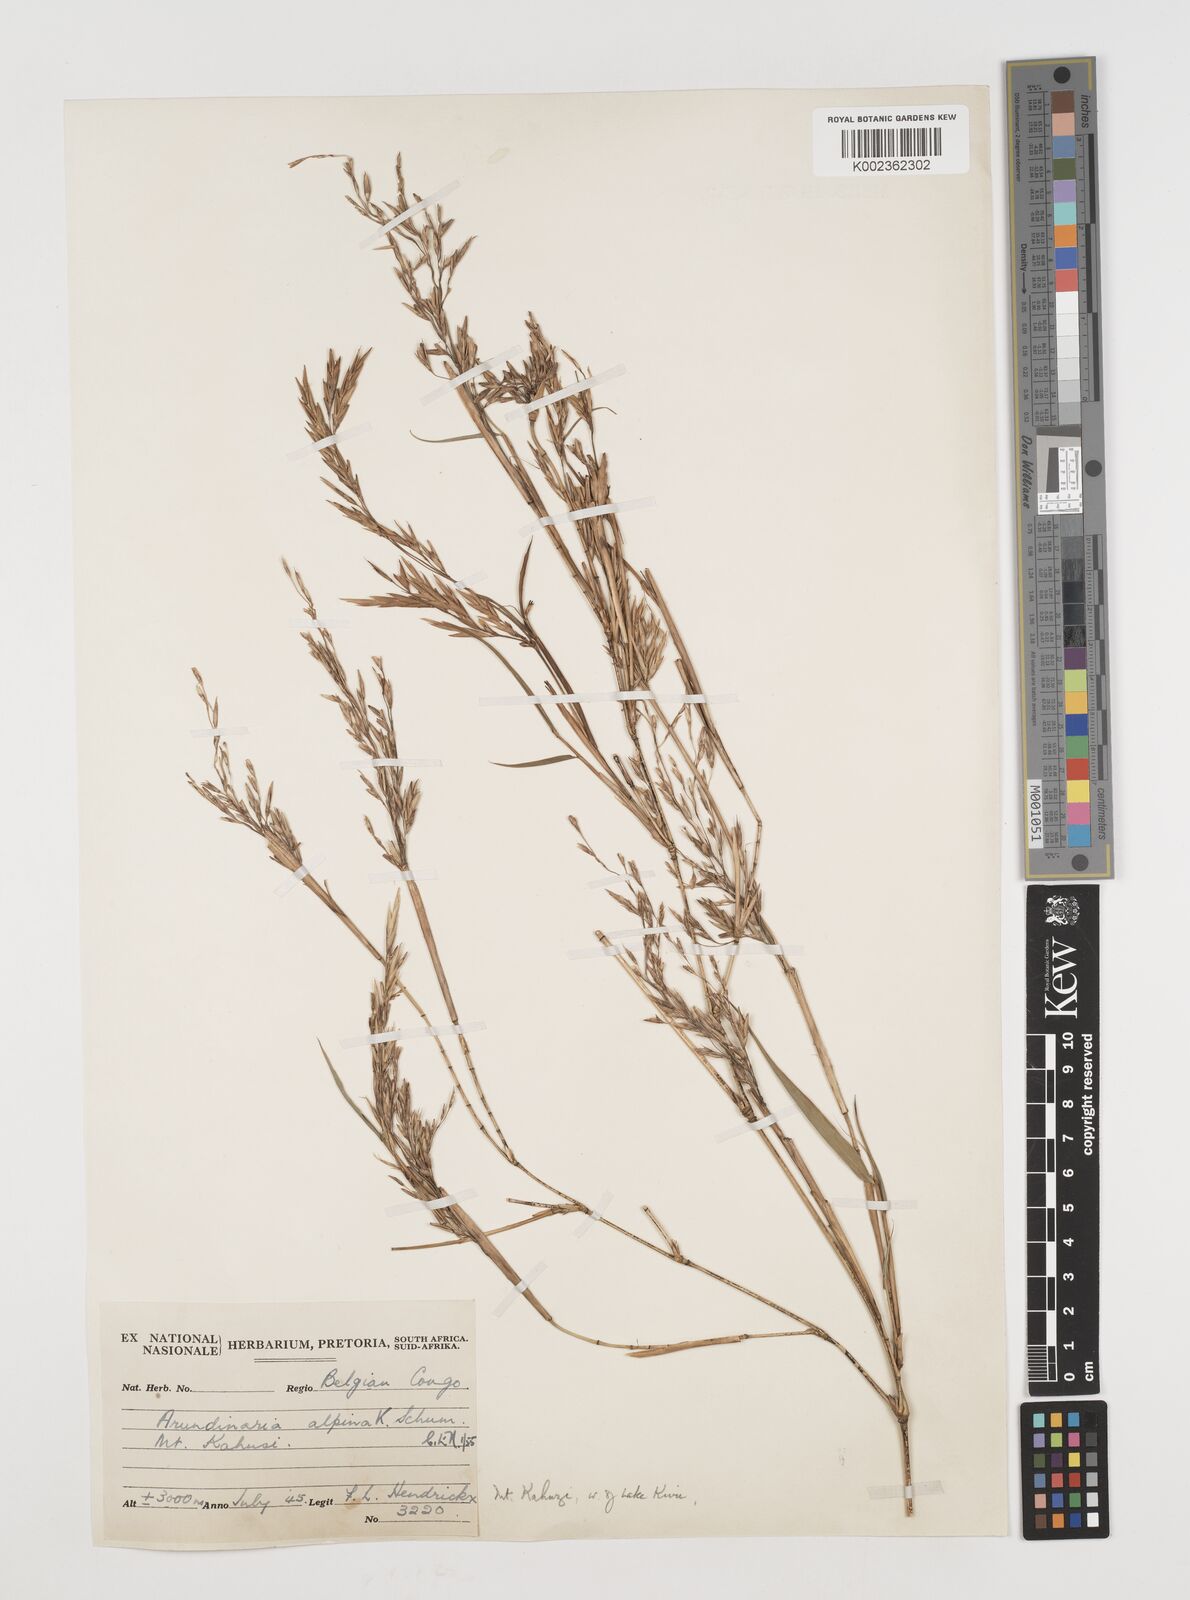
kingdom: Plantae
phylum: Tracheophyta
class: Liliopsida
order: Poales
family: Poaceae
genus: Oldeania
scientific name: Oldeania alpina
